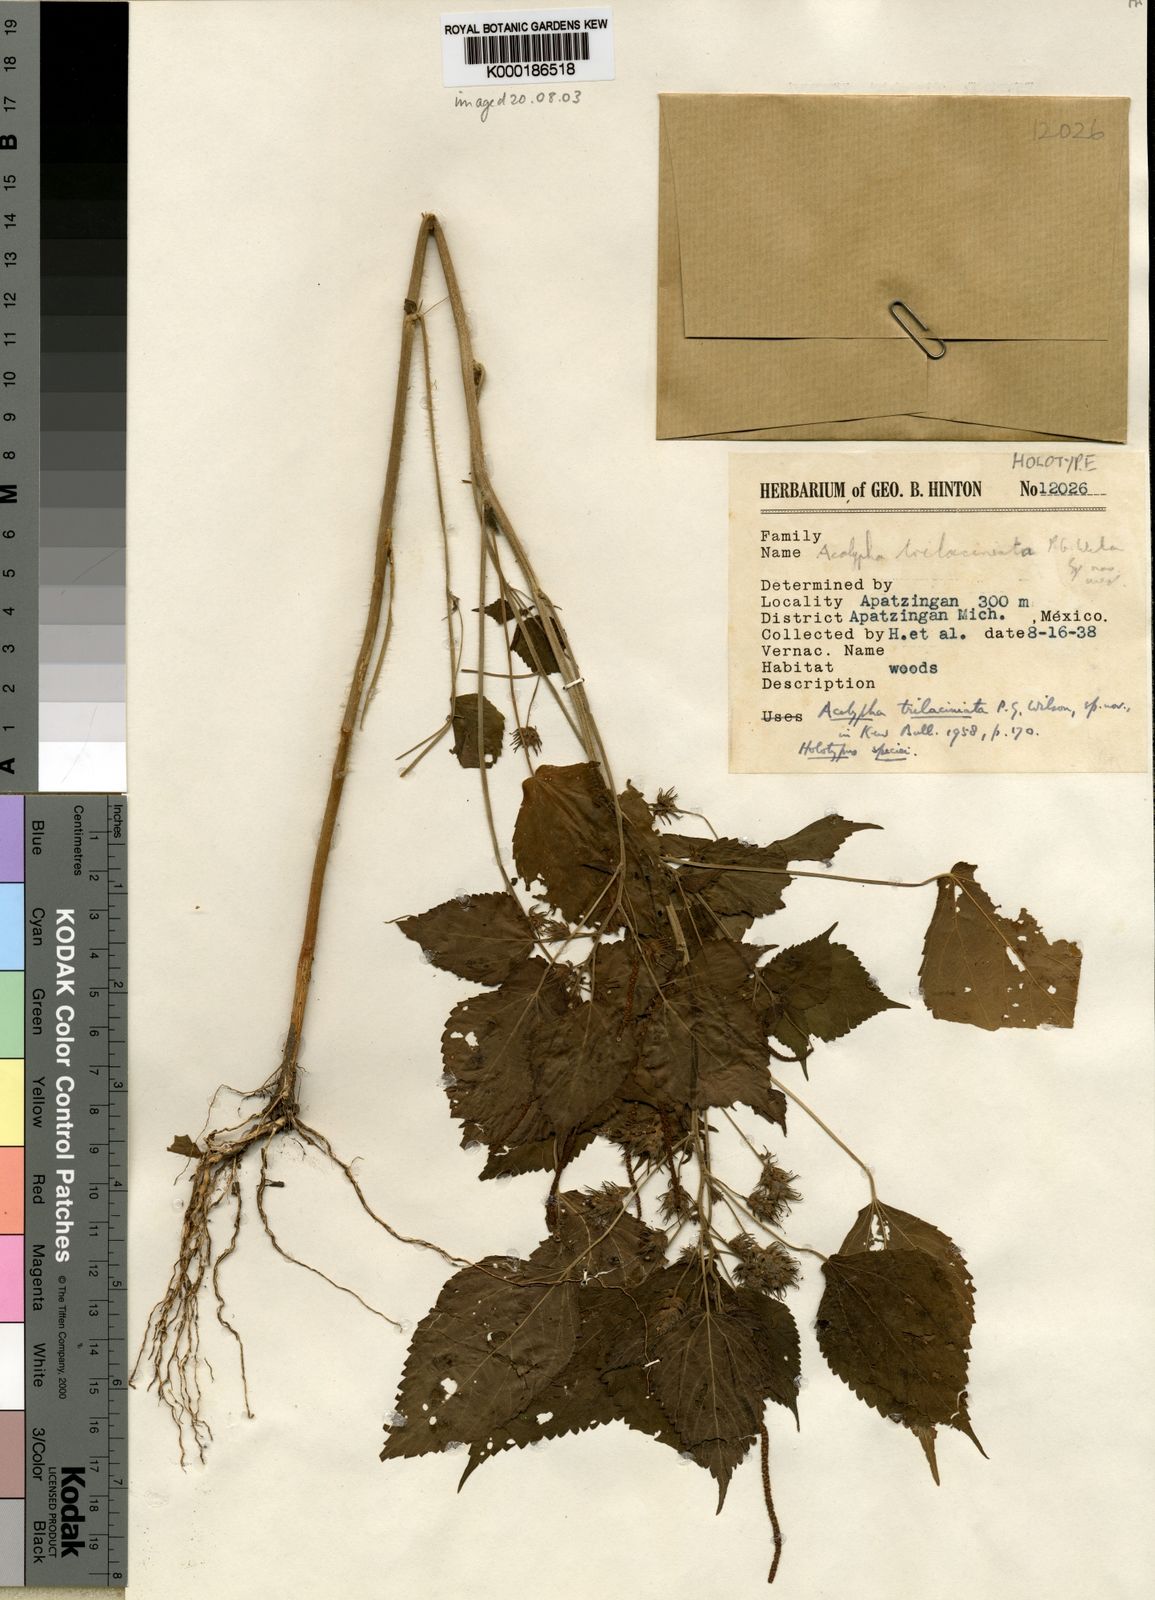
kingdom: Plantae
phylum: Tracheophyta
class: Magnoliopsida
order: Malpighiales
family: Euphorbiaceae
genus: Acalypha
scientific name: Acalypha trilaciniata
